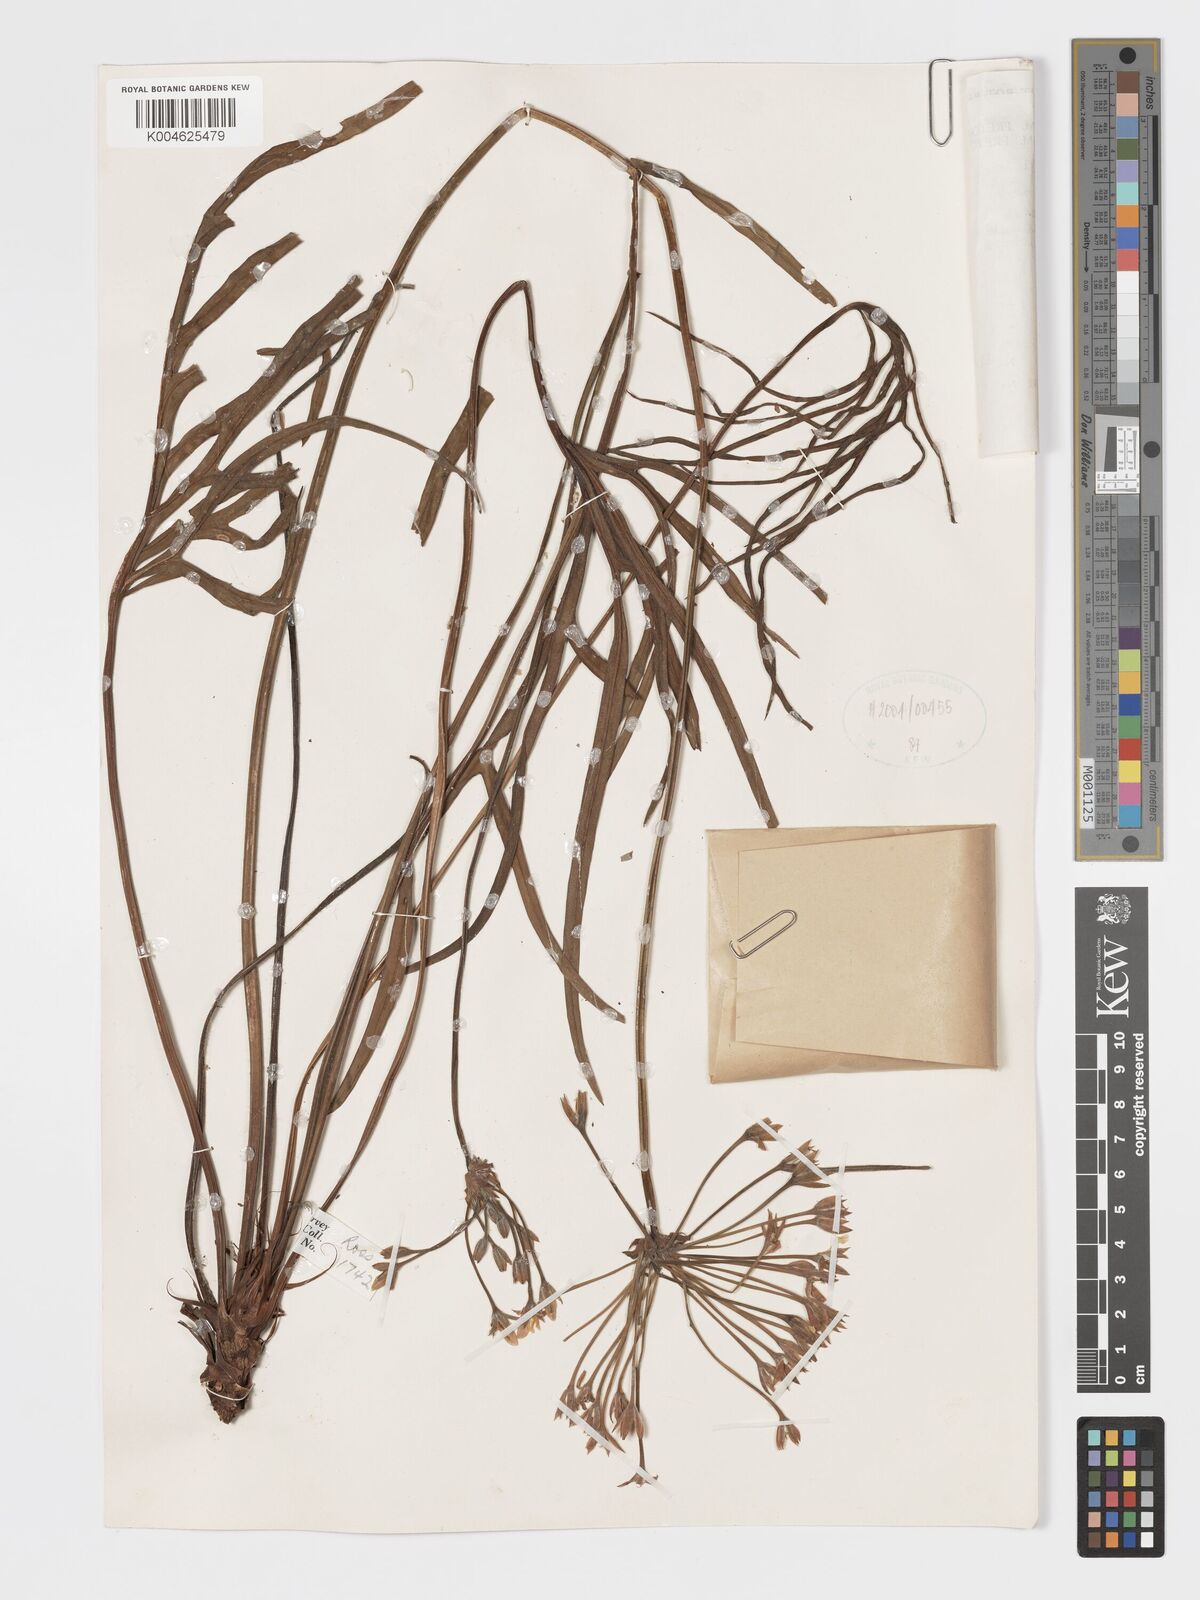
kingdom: Plantae
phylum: Tracheophyta
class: Magnoliopsida
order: Geraniales
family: Geraniaceae
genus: Pelargonium
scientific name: Pelargonium luridum
